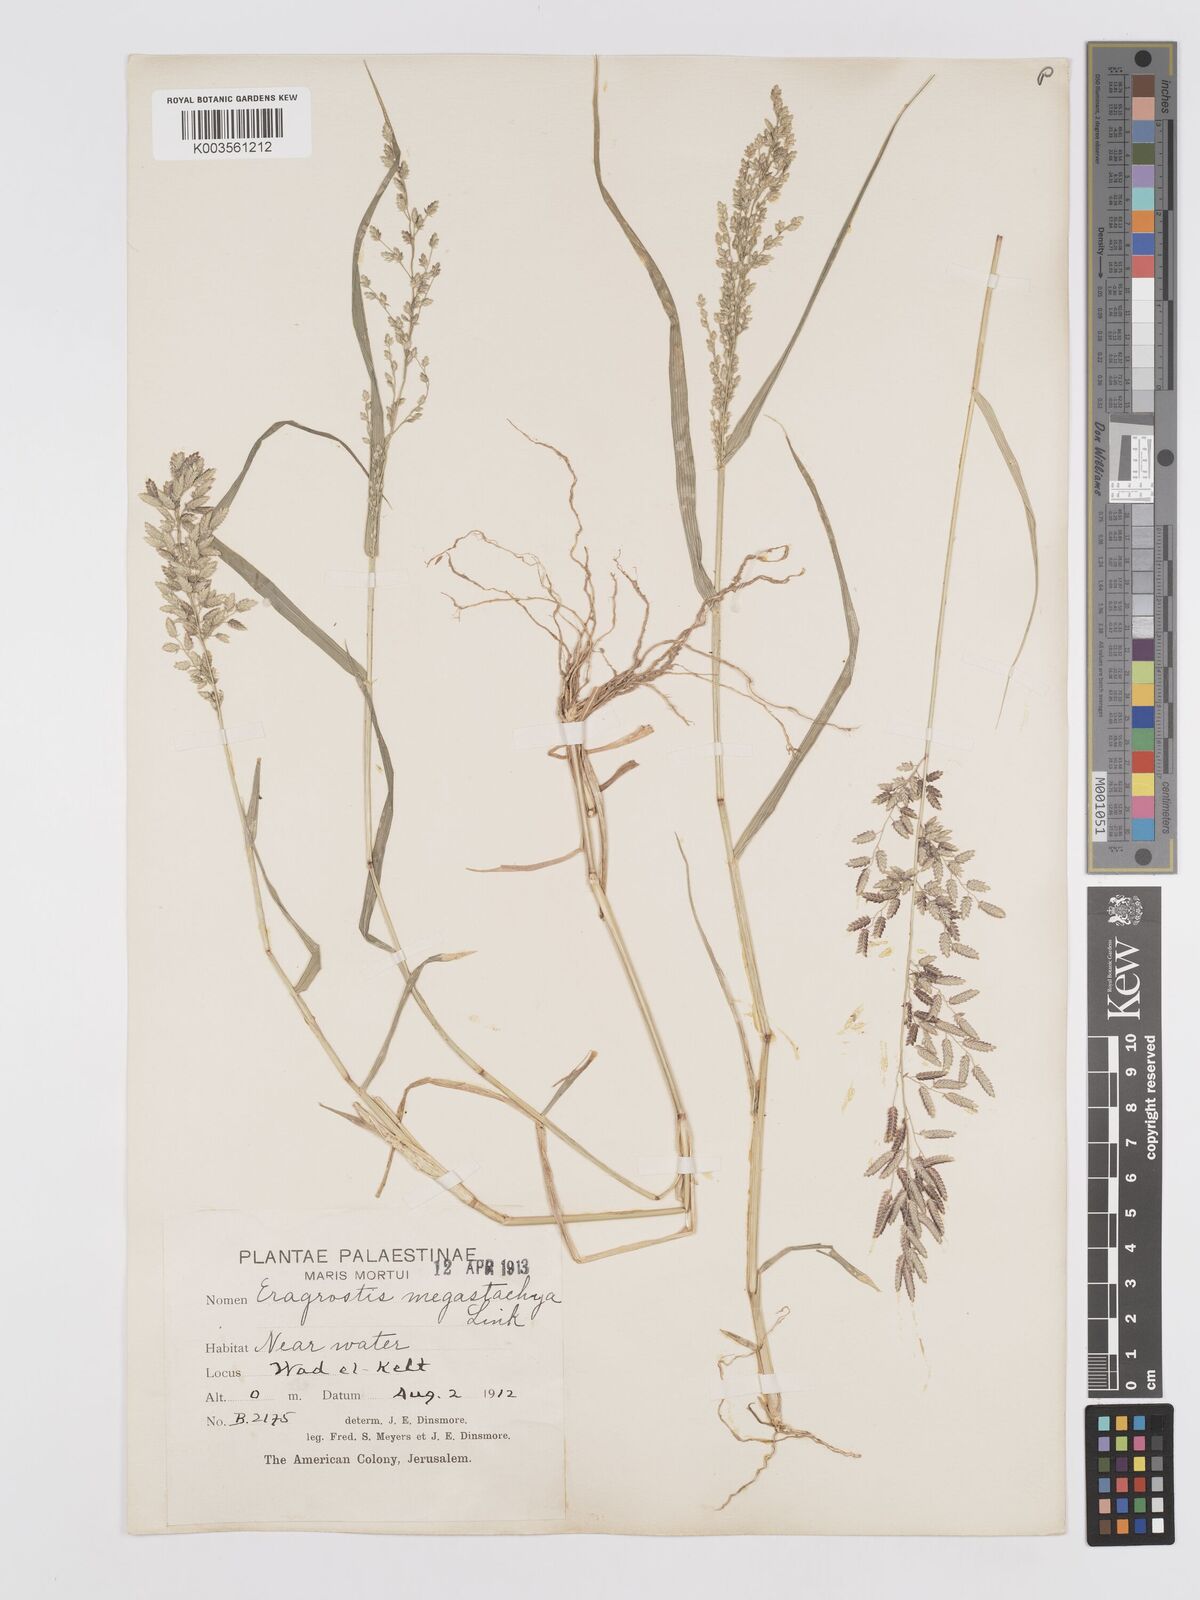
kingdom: Plantae
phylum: Tracheophyta
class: Liliopsida
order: Poales
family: Poaceae
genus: Eragrostis
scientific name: Eragrostis cilianensis
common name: Stinkgrass
